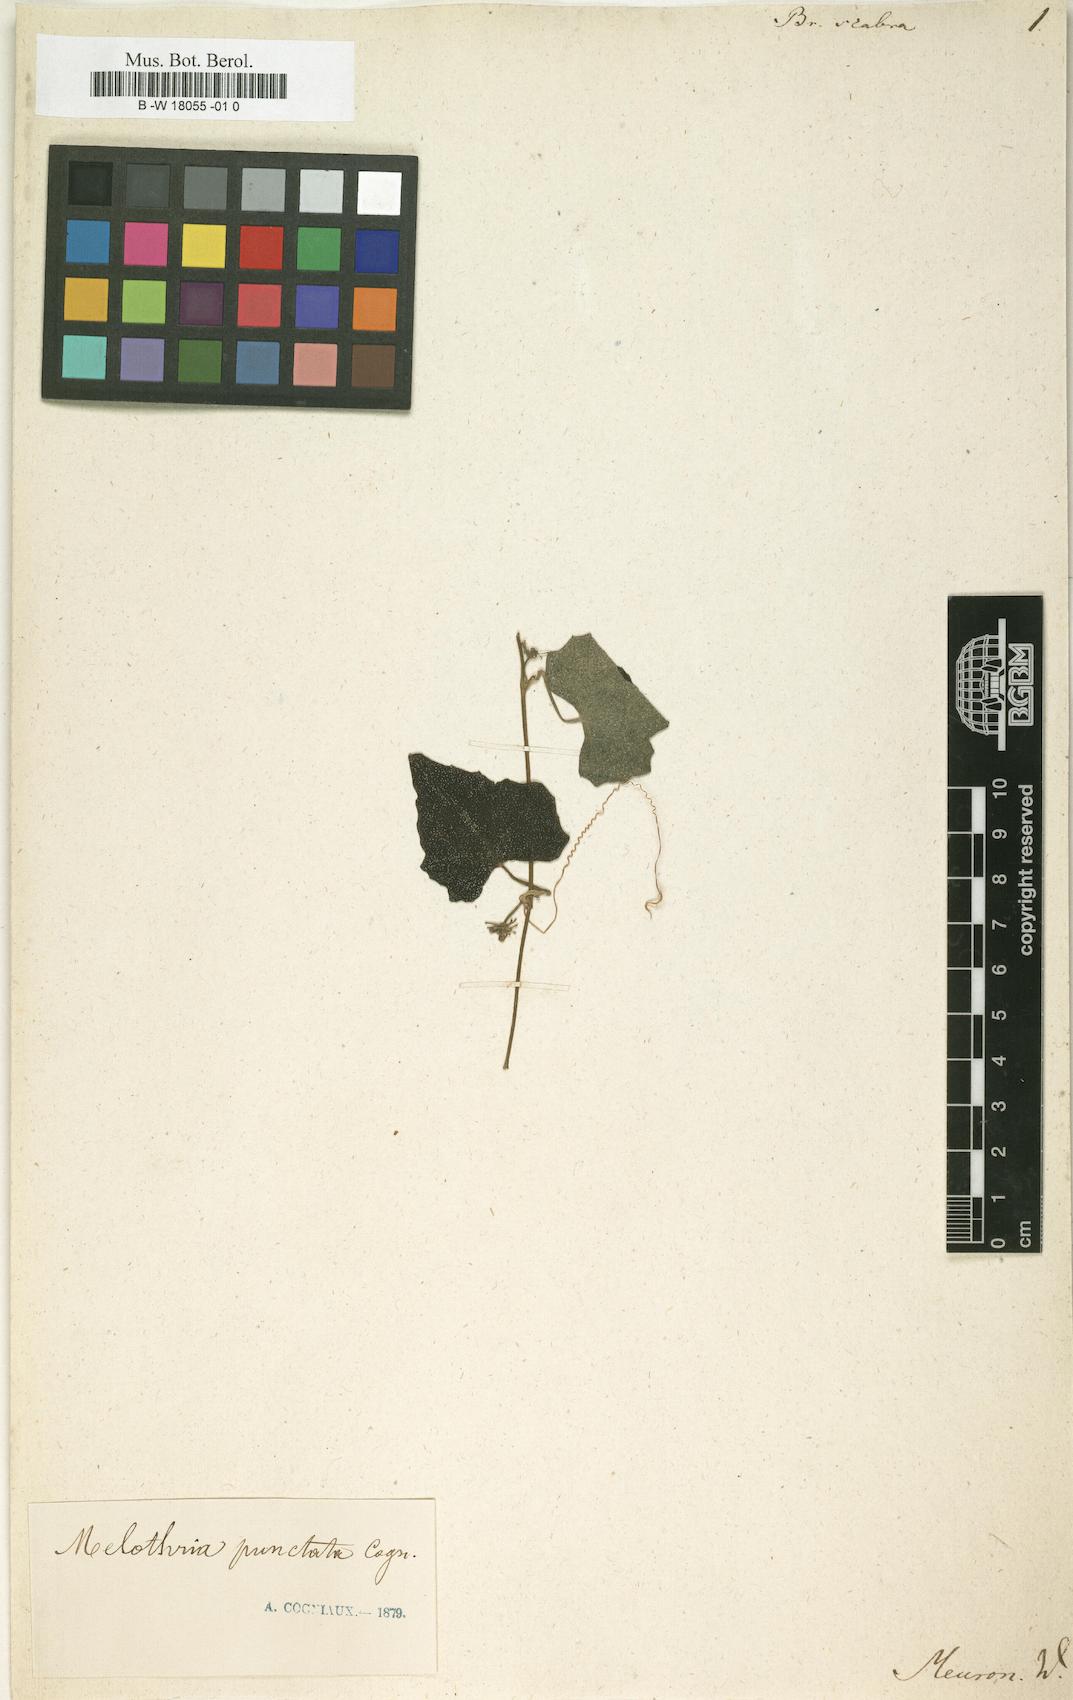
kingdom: Plantae
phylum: Tracheophyta
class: Magnoliopsida
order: Cucurbitales
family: Cucurbitaceae
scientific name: Cucurbitaceae
